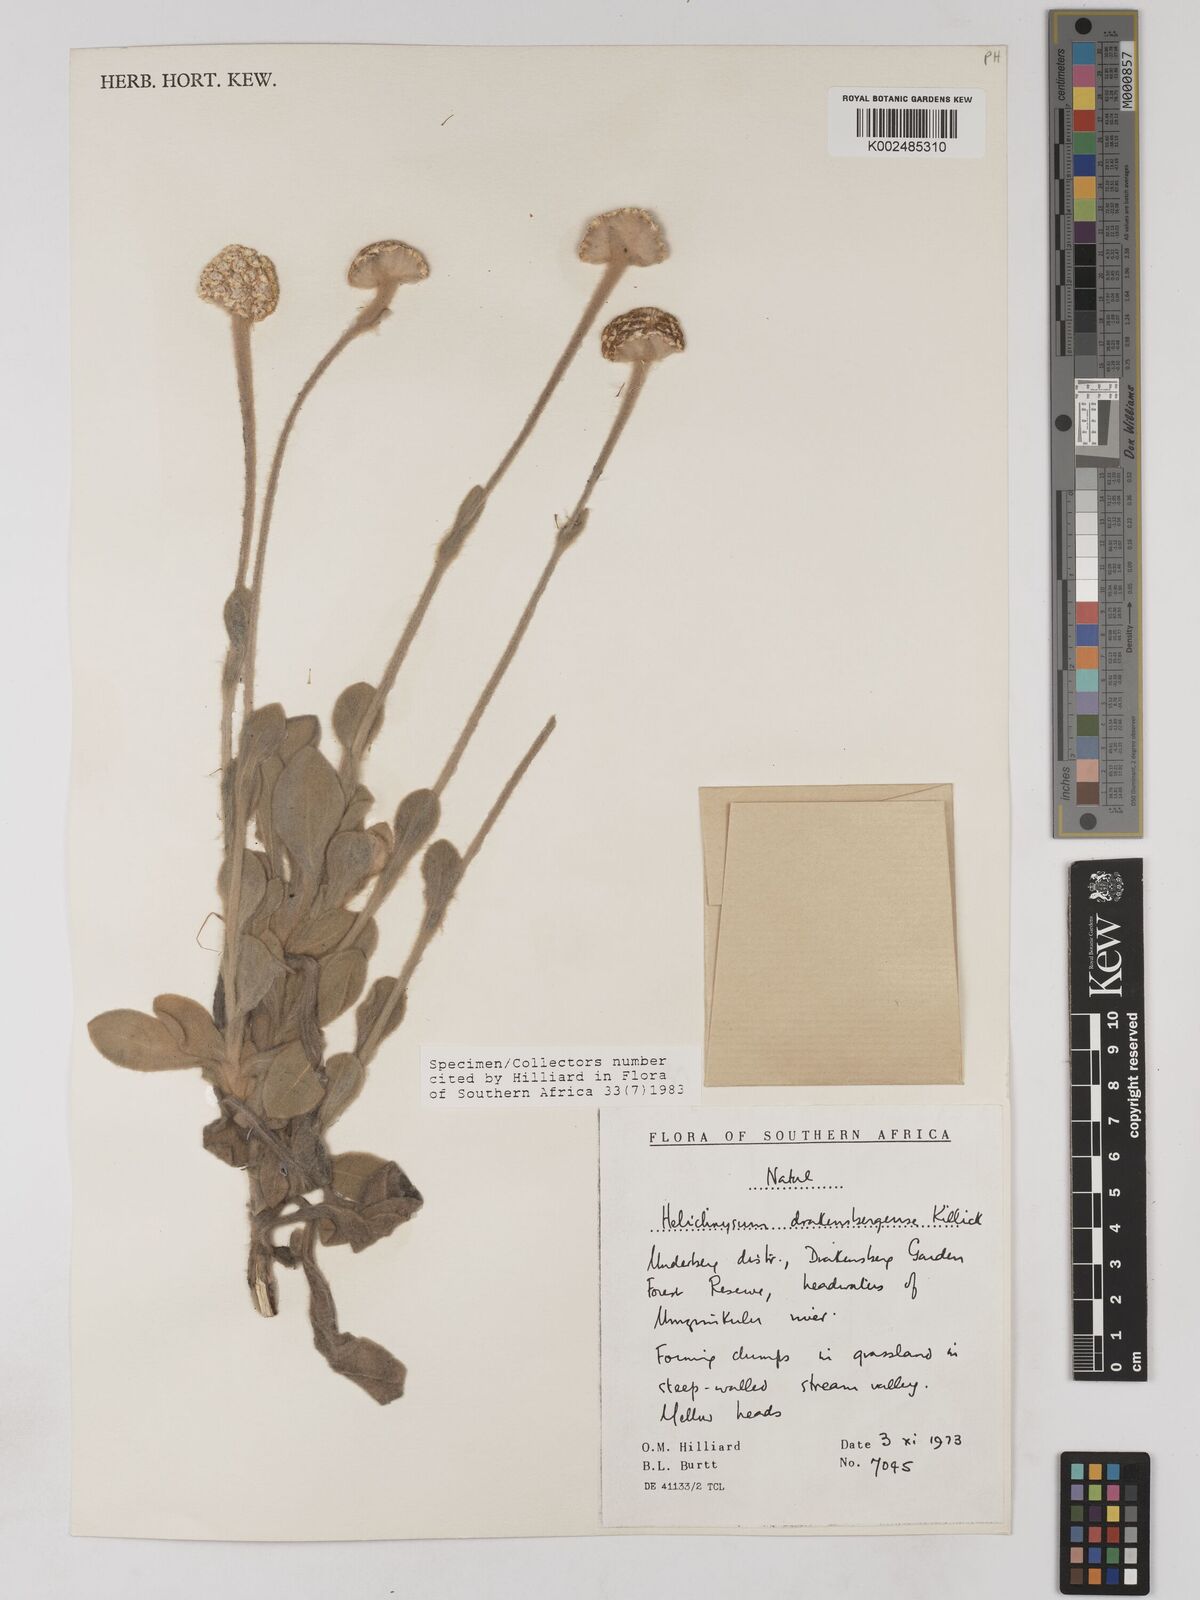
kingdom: Plantae
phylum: Tracheophyta
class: Magnoliopsida
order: Asterales
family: Asteraceae
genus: Helichrysum
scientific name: Helichrysum drakensbergense
